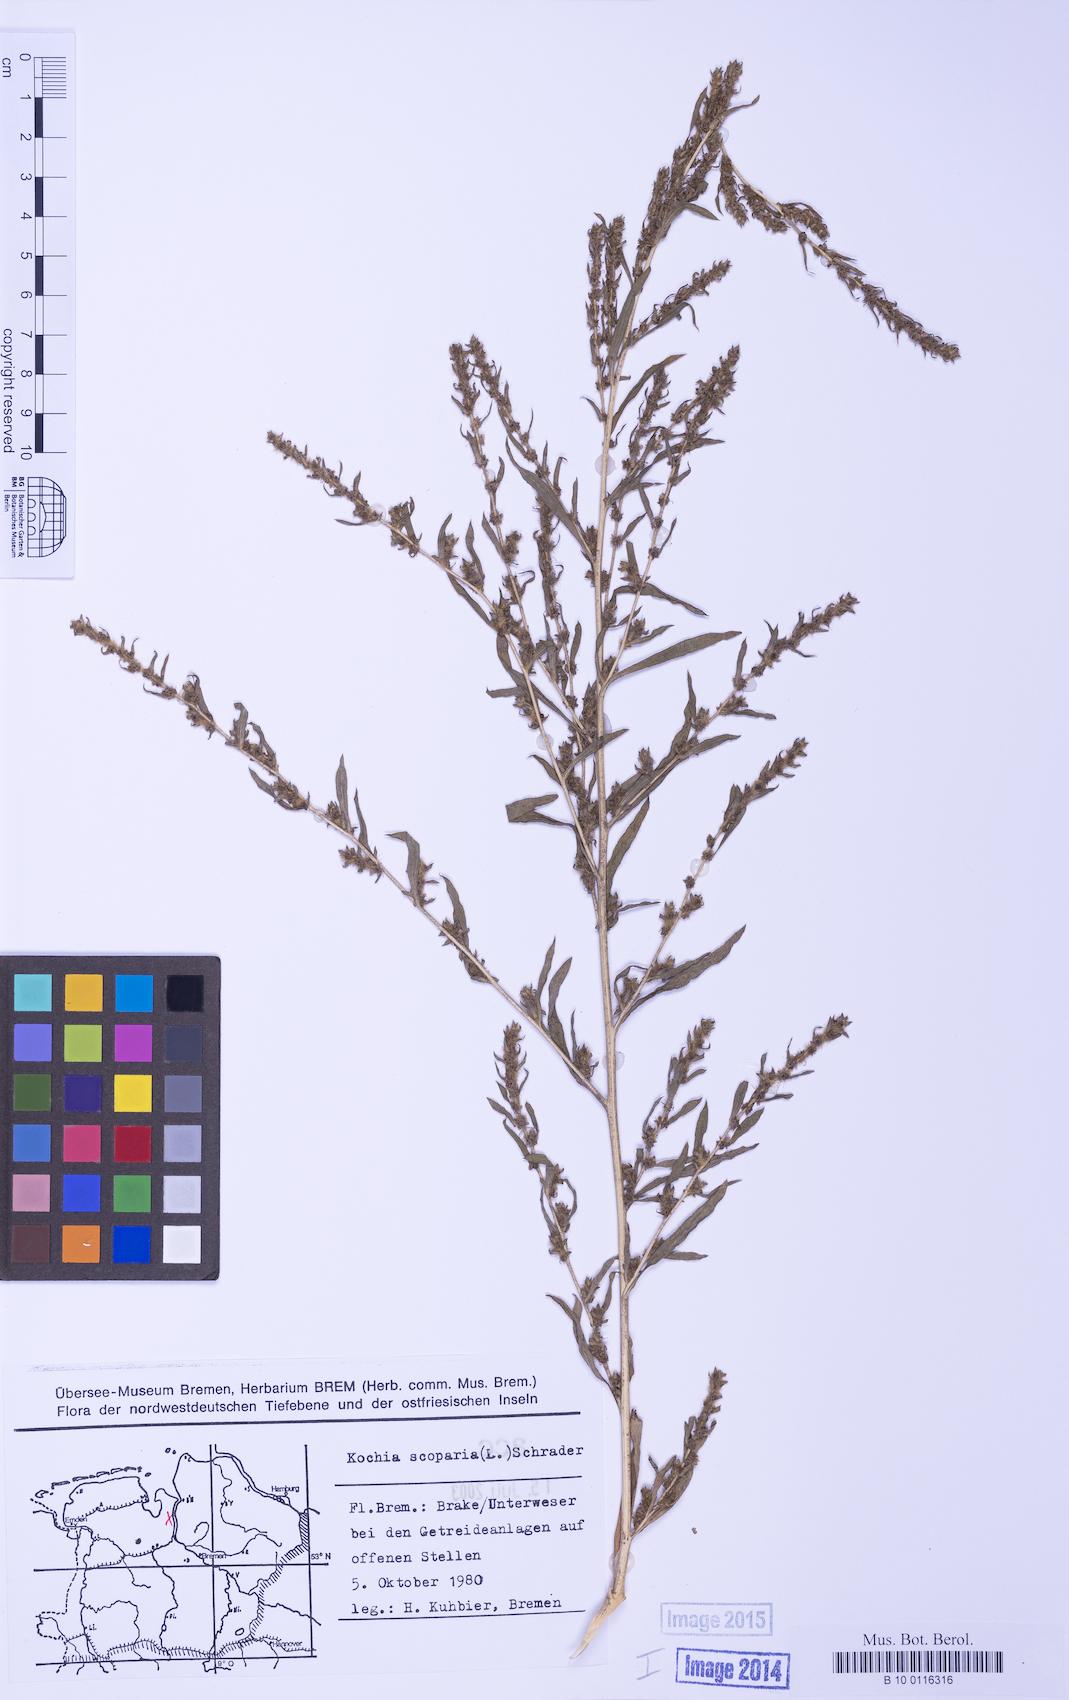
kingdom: Plantae
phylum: Tracheophyta
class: Magnoliopsida
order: Caryophyllales
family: Amaranthaceae
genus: Bassia
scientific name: Bassia scoparia
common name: Belvedere
